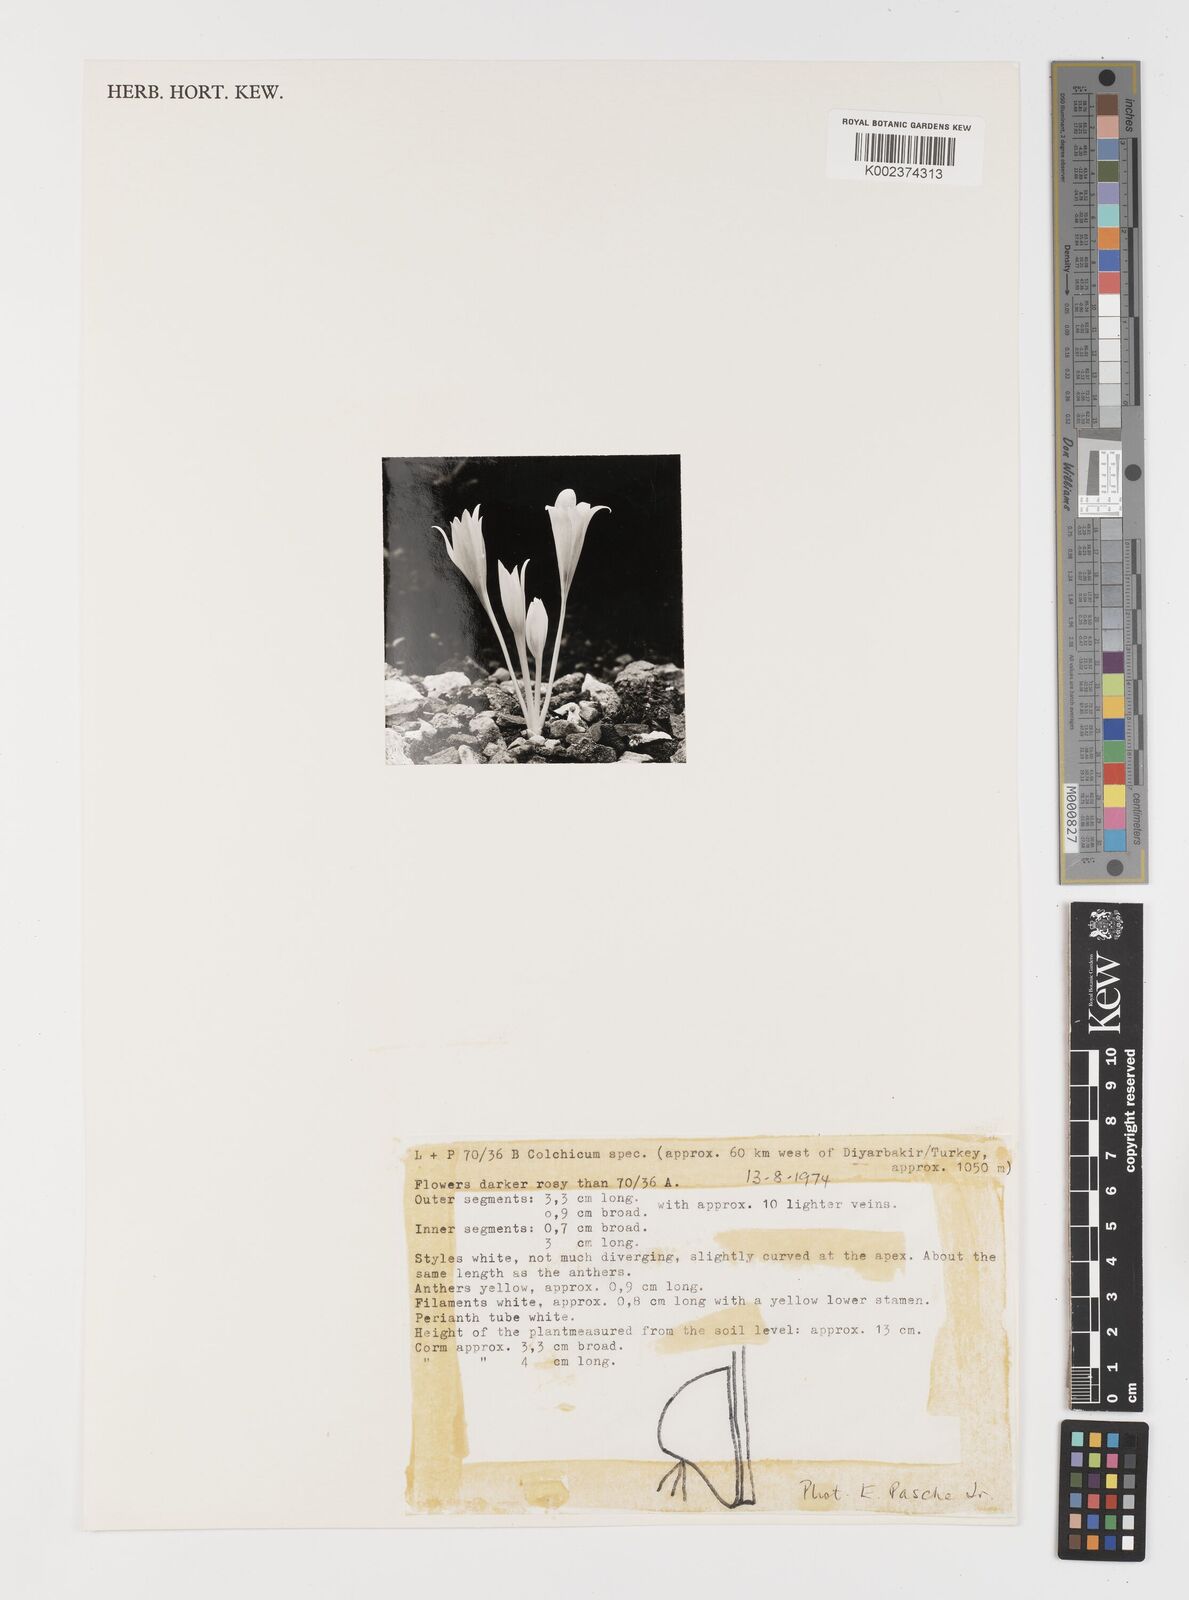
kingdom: Plantae
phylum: Tracheophyta
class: Liliopsida
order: Liliales
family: Colchicaceae
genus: Colchicum
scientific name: Colchicum
